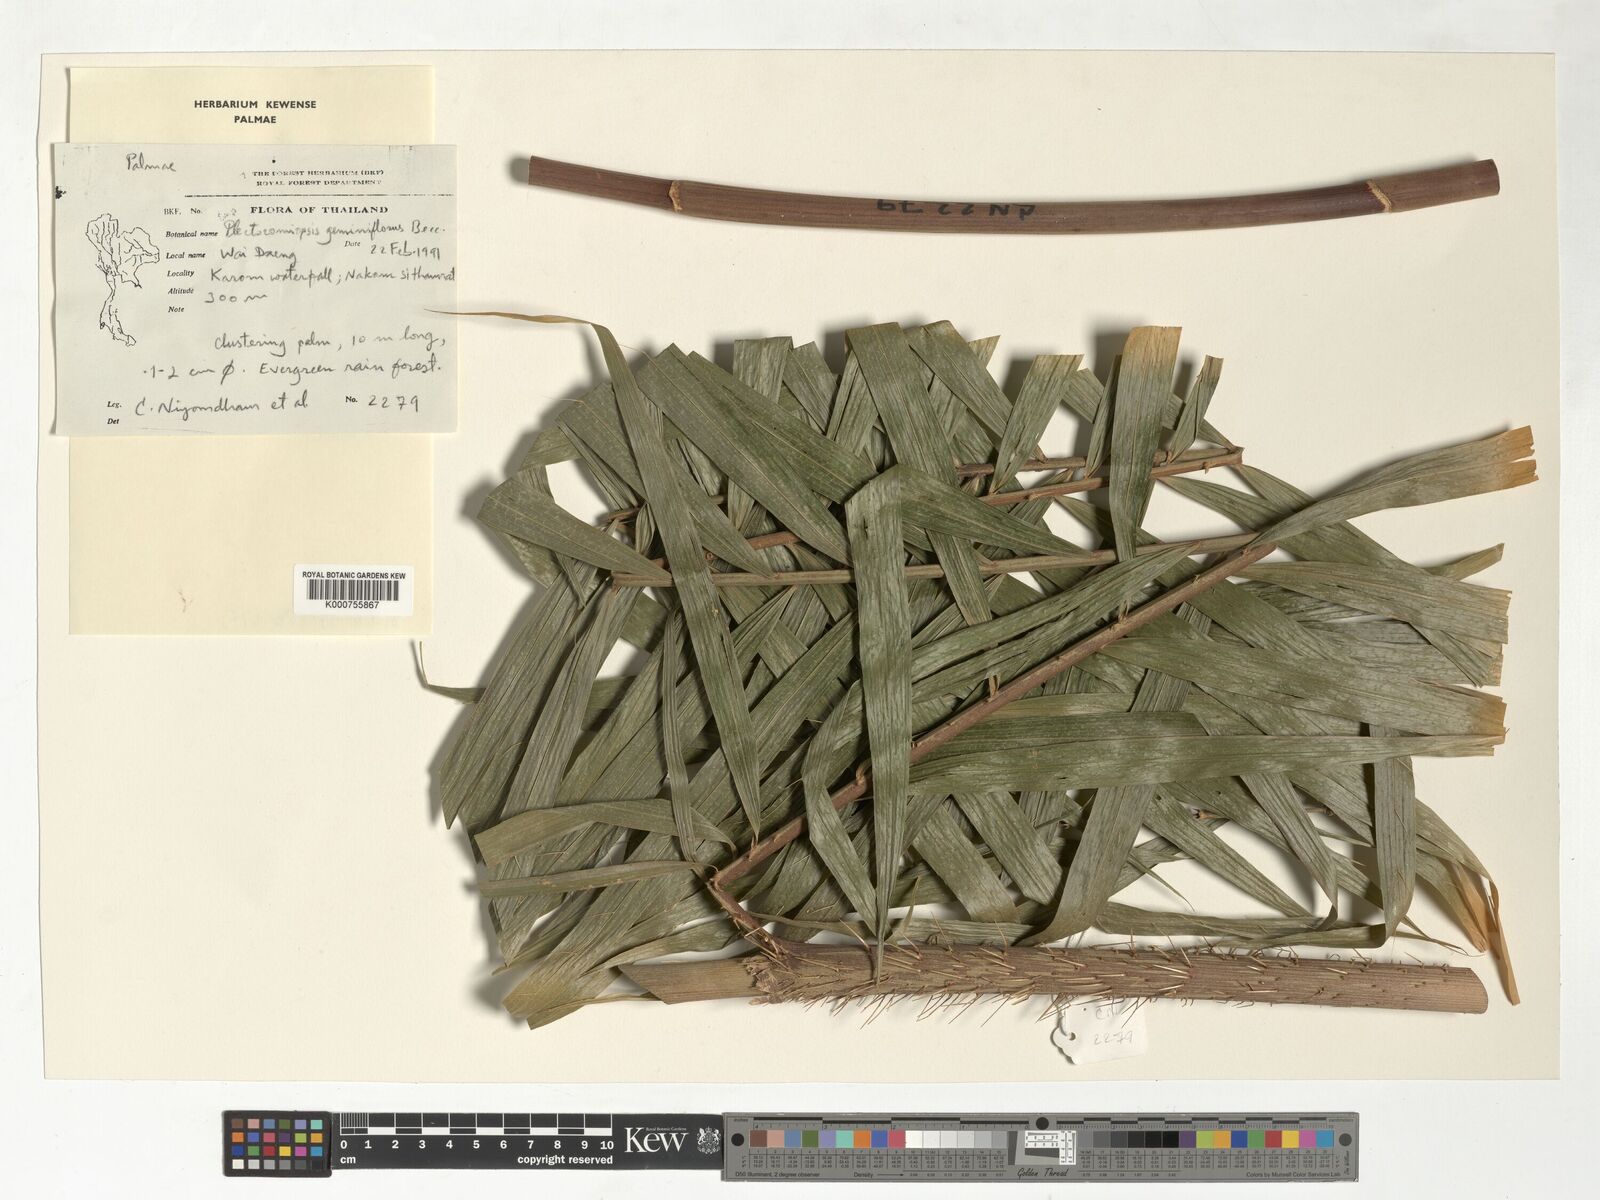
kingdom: Plantae
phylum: Tracheophyta
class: Liliopsida
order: Arecales
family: Arecaceae
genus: Plectocomiopsis
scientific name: Plectocomiopsis geminiflora
